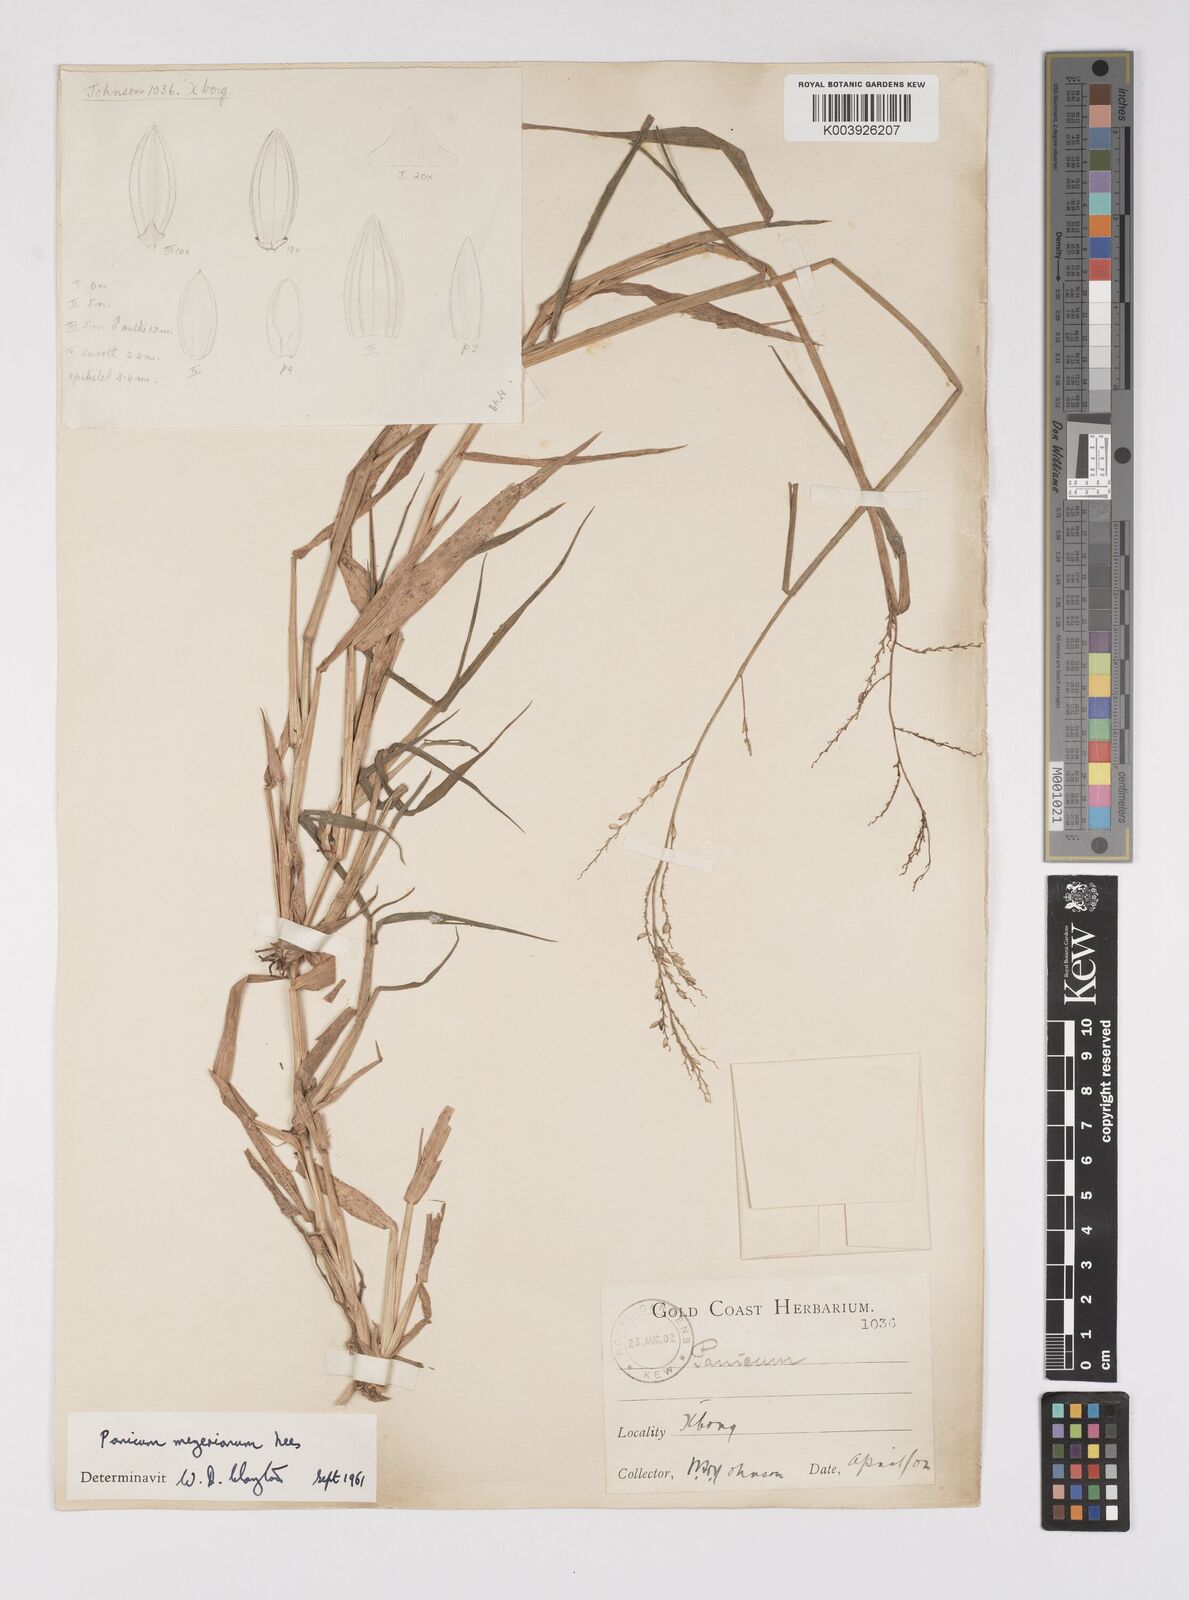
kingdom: Plantae
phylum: Tracheophyta
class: Liliopsida
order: Poales
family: Poaceae
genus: Eriochloa
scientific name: Eriochloa meyeriana
